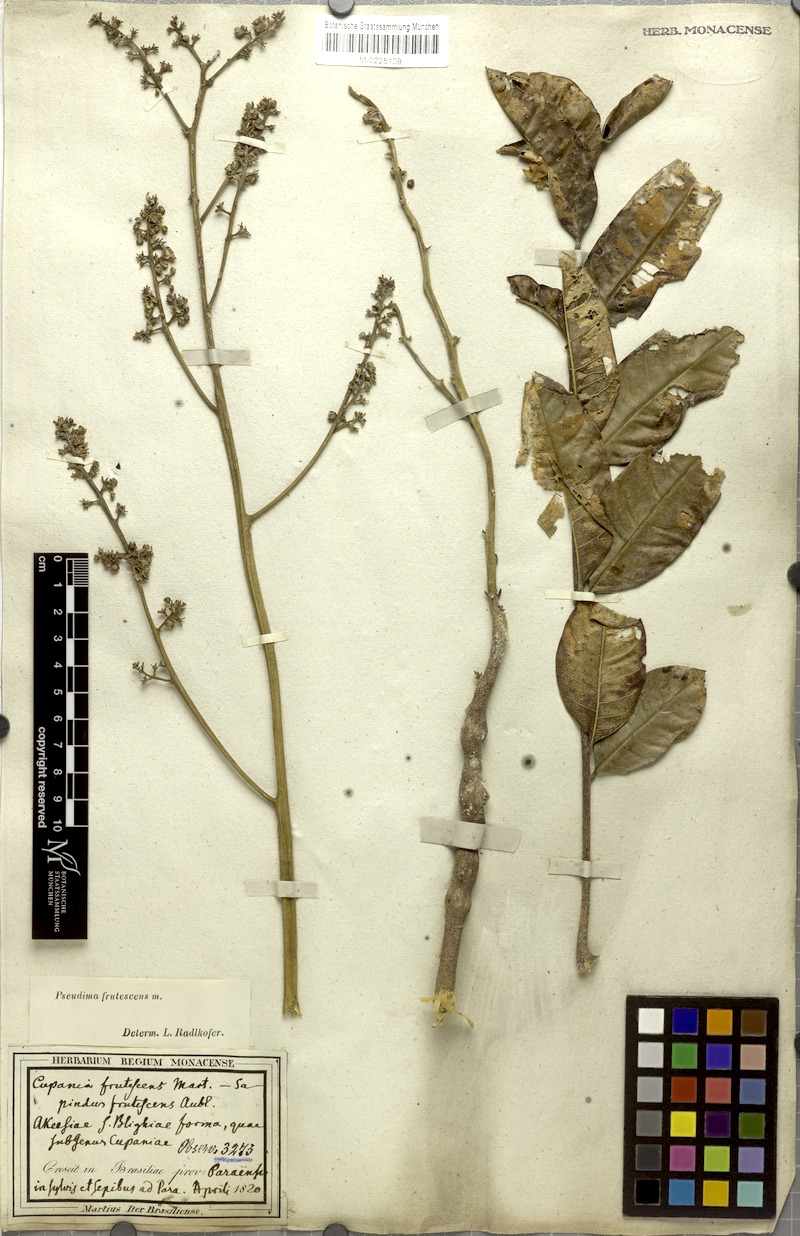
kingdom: Plantae
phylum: Tracheophyta
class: Magnoliopsida
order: Sapindales
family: Sapindaceae
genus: Pseudima
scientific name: Pseudima frutescens
